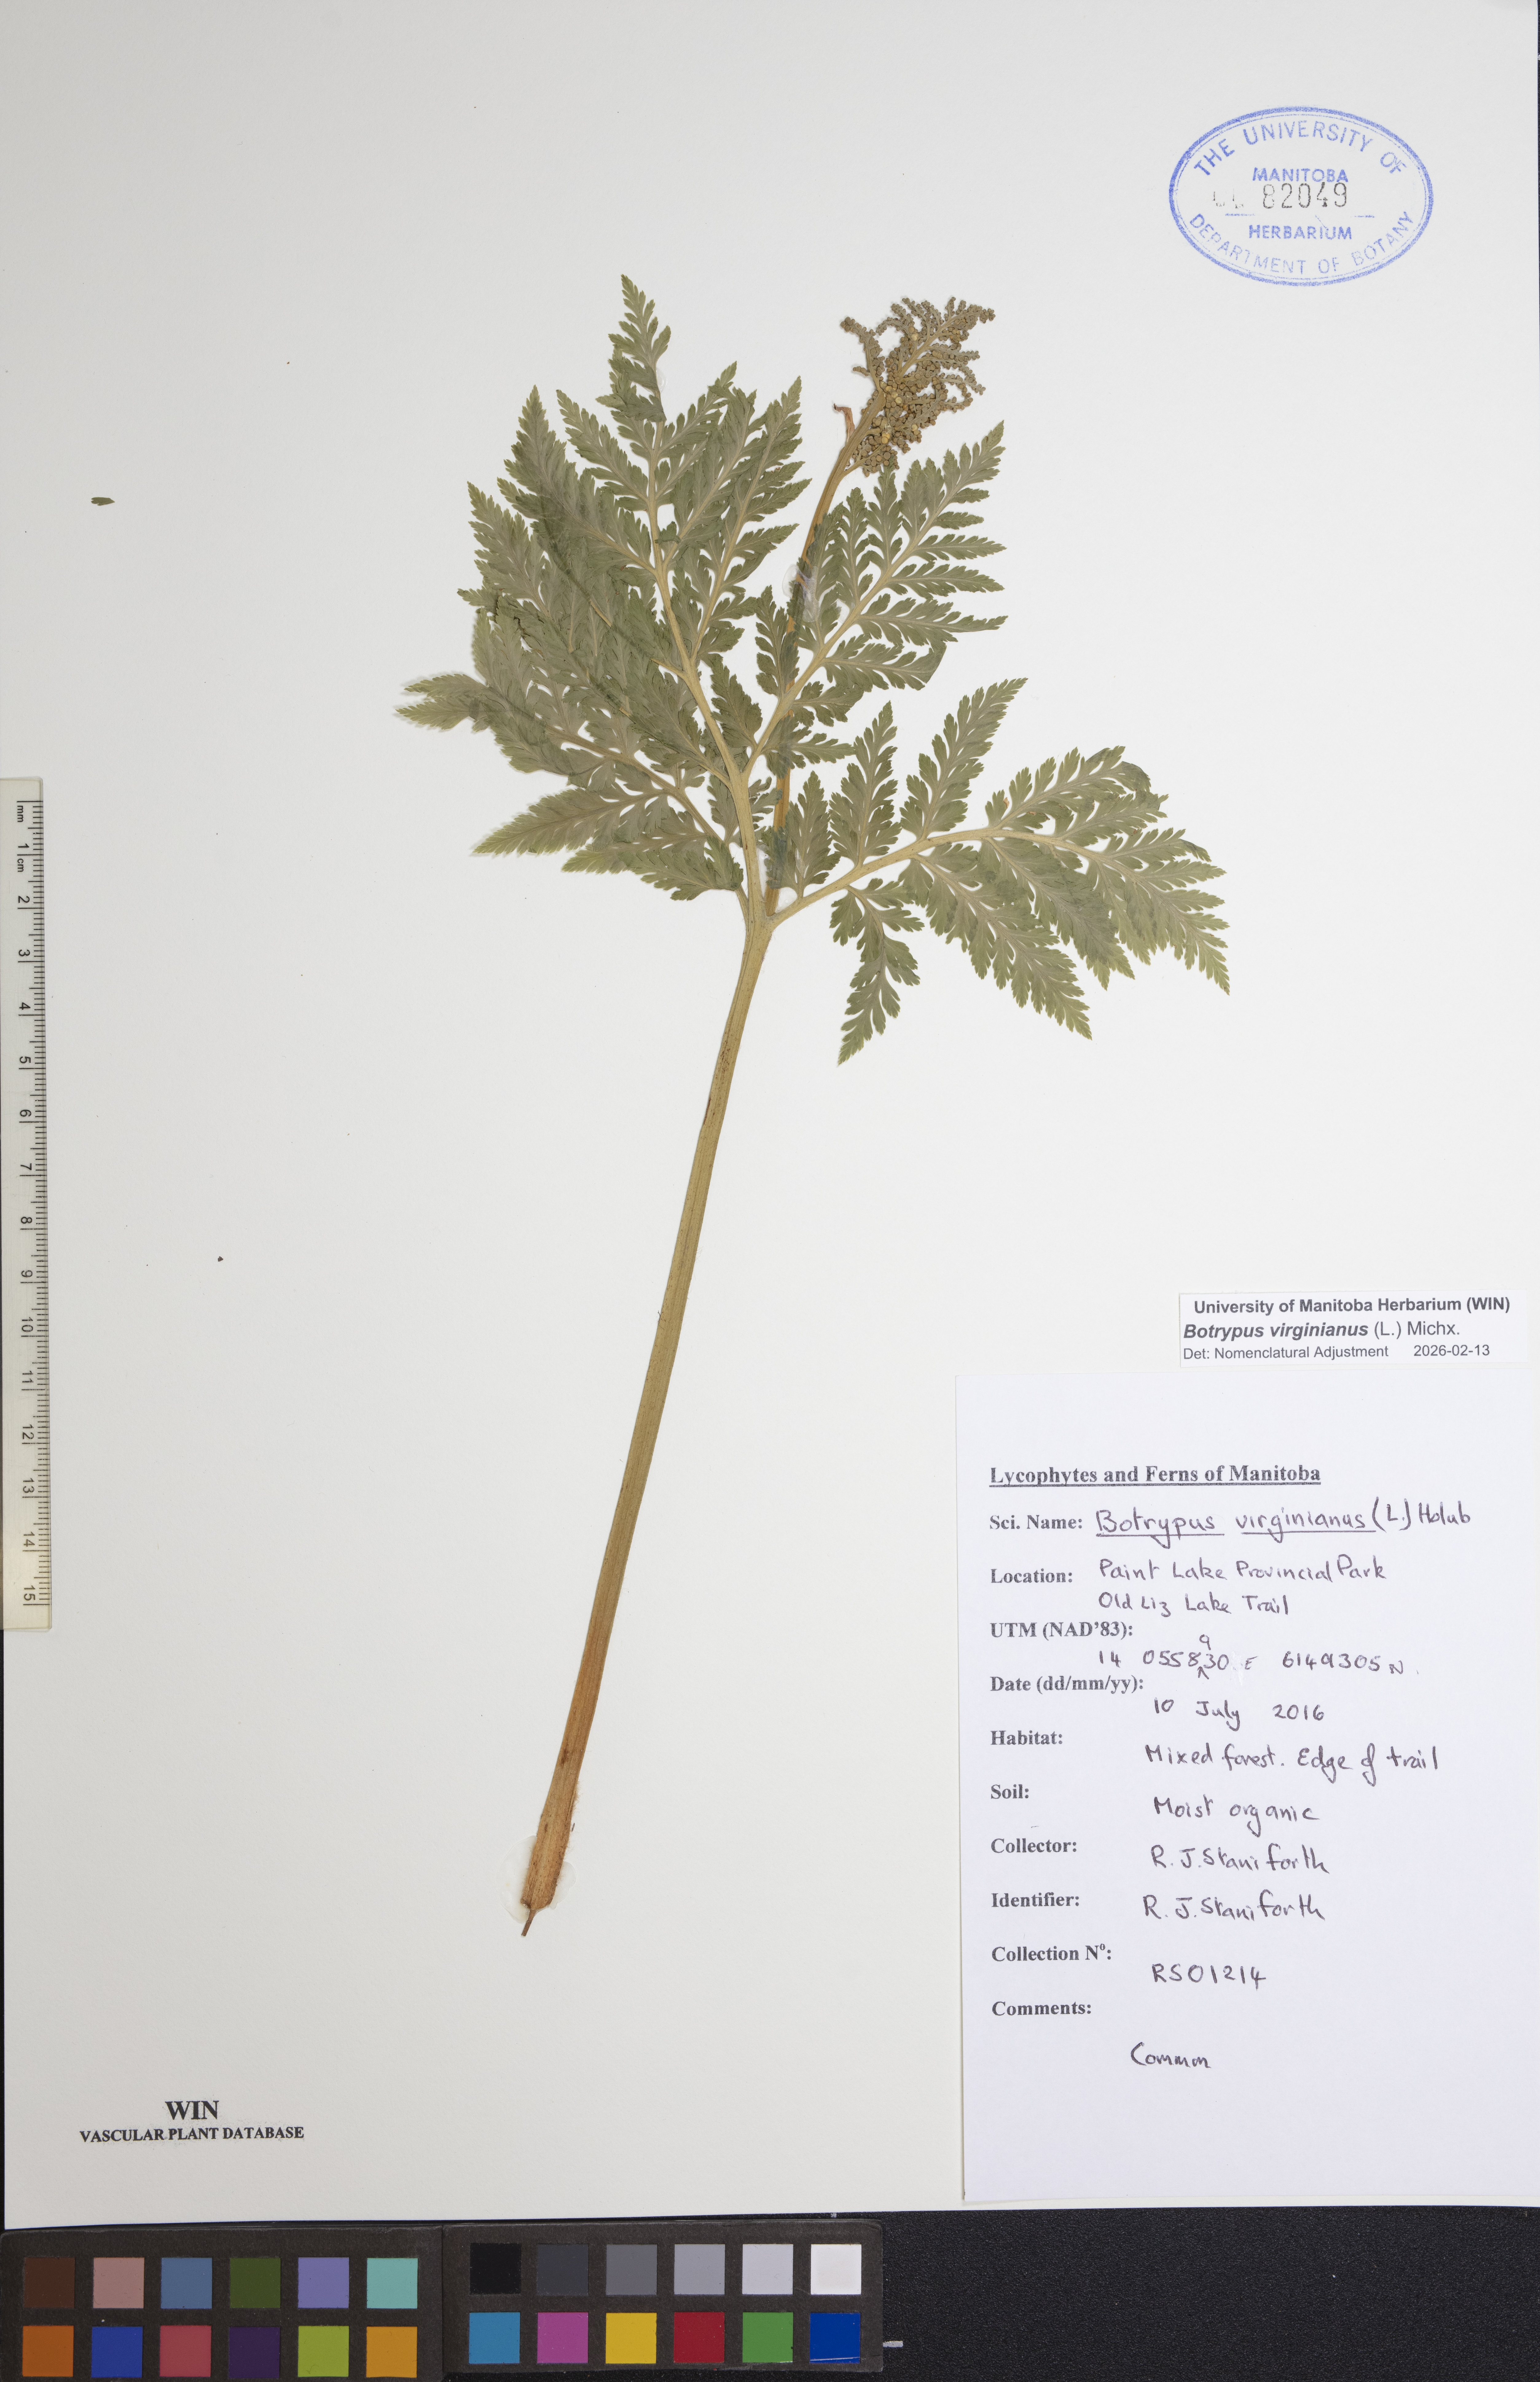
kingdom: Plantae
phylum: Tracheophyta
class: Polypodiopsida
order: Ophioglossales
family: Ophioglossaceae
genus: Botrypus
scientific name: Botrypus virginianus
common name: Common grapefern
